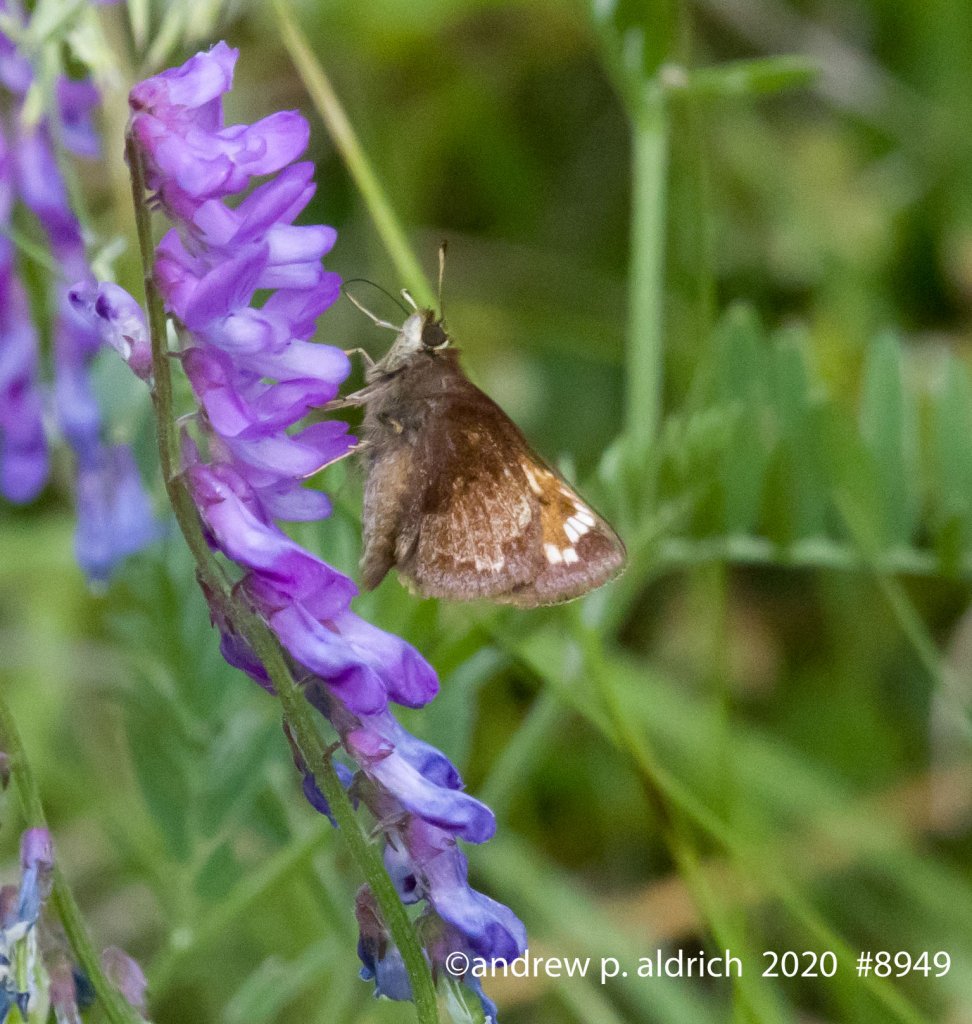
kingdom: Animalia
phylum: Arthropoda
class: Insecta
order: Lepidoptera
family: Hesperiidae
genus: Lon
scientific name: Lon hobomok
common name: Hobomok Skipper
